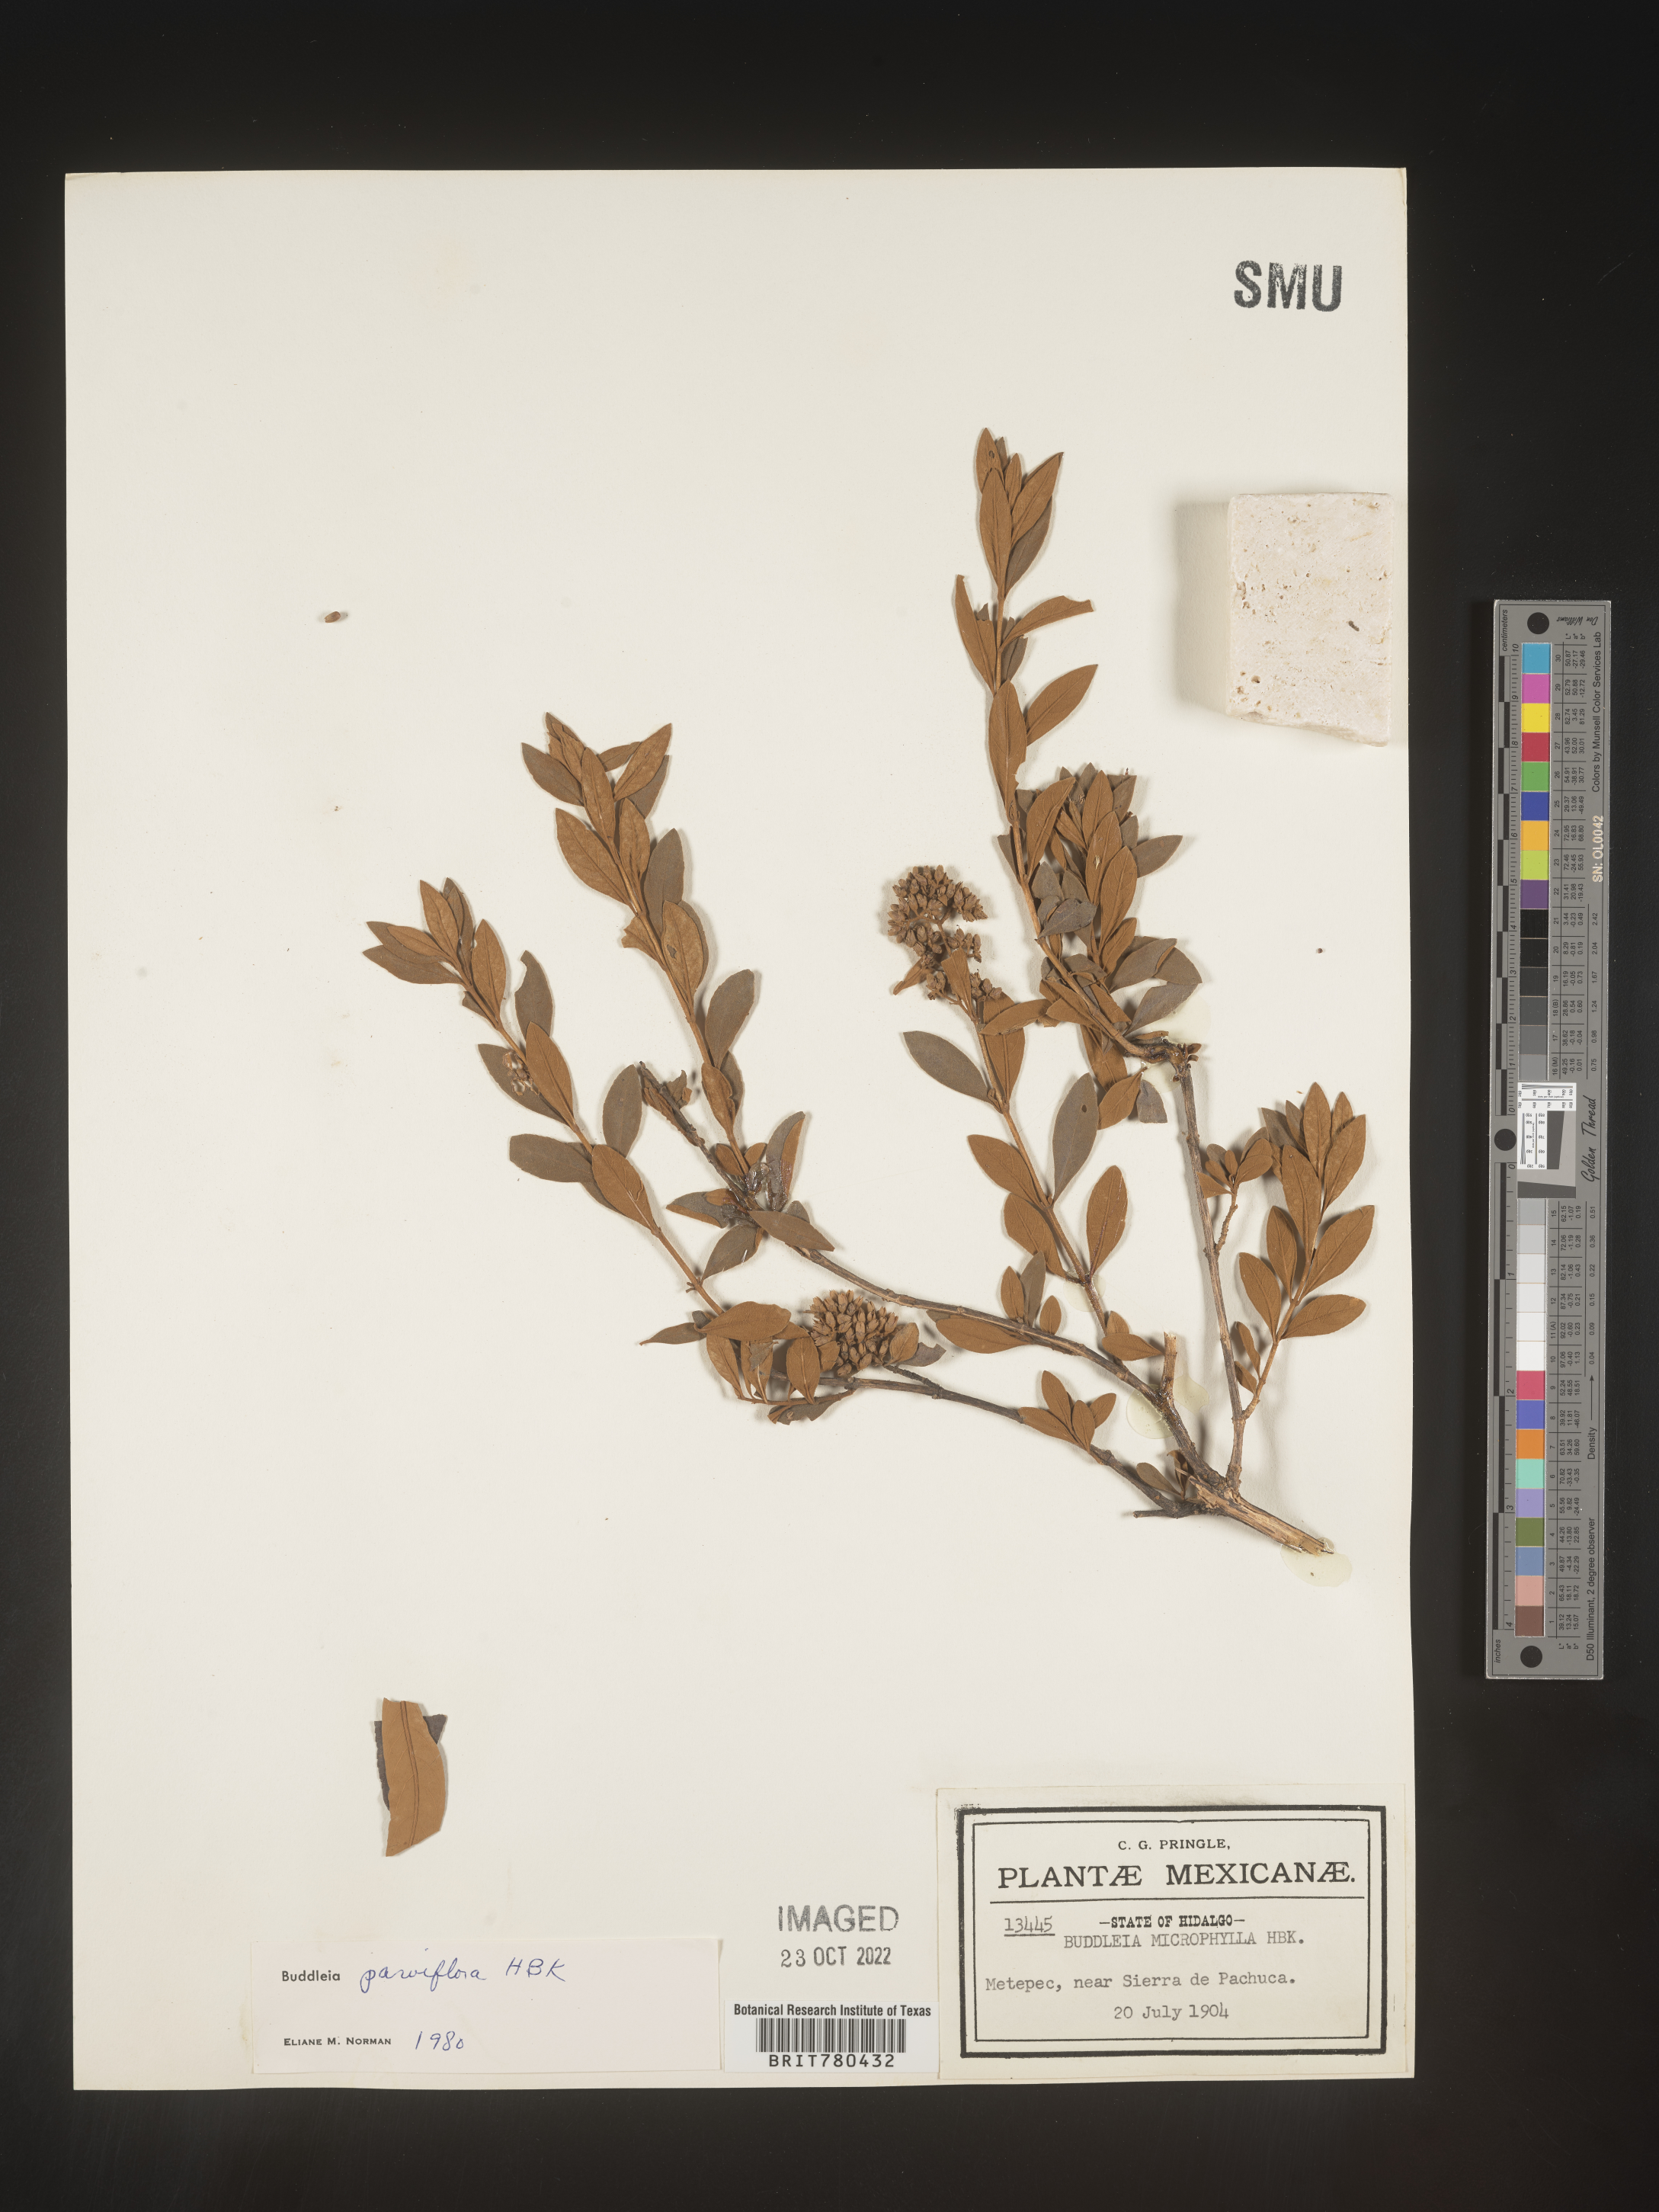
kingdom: Plantae
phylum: Tracheophyta
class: Magnoliopsida
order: Lamiales
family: Scrophulariaceae
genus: Buddleja
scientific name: Buddleja parviflora
